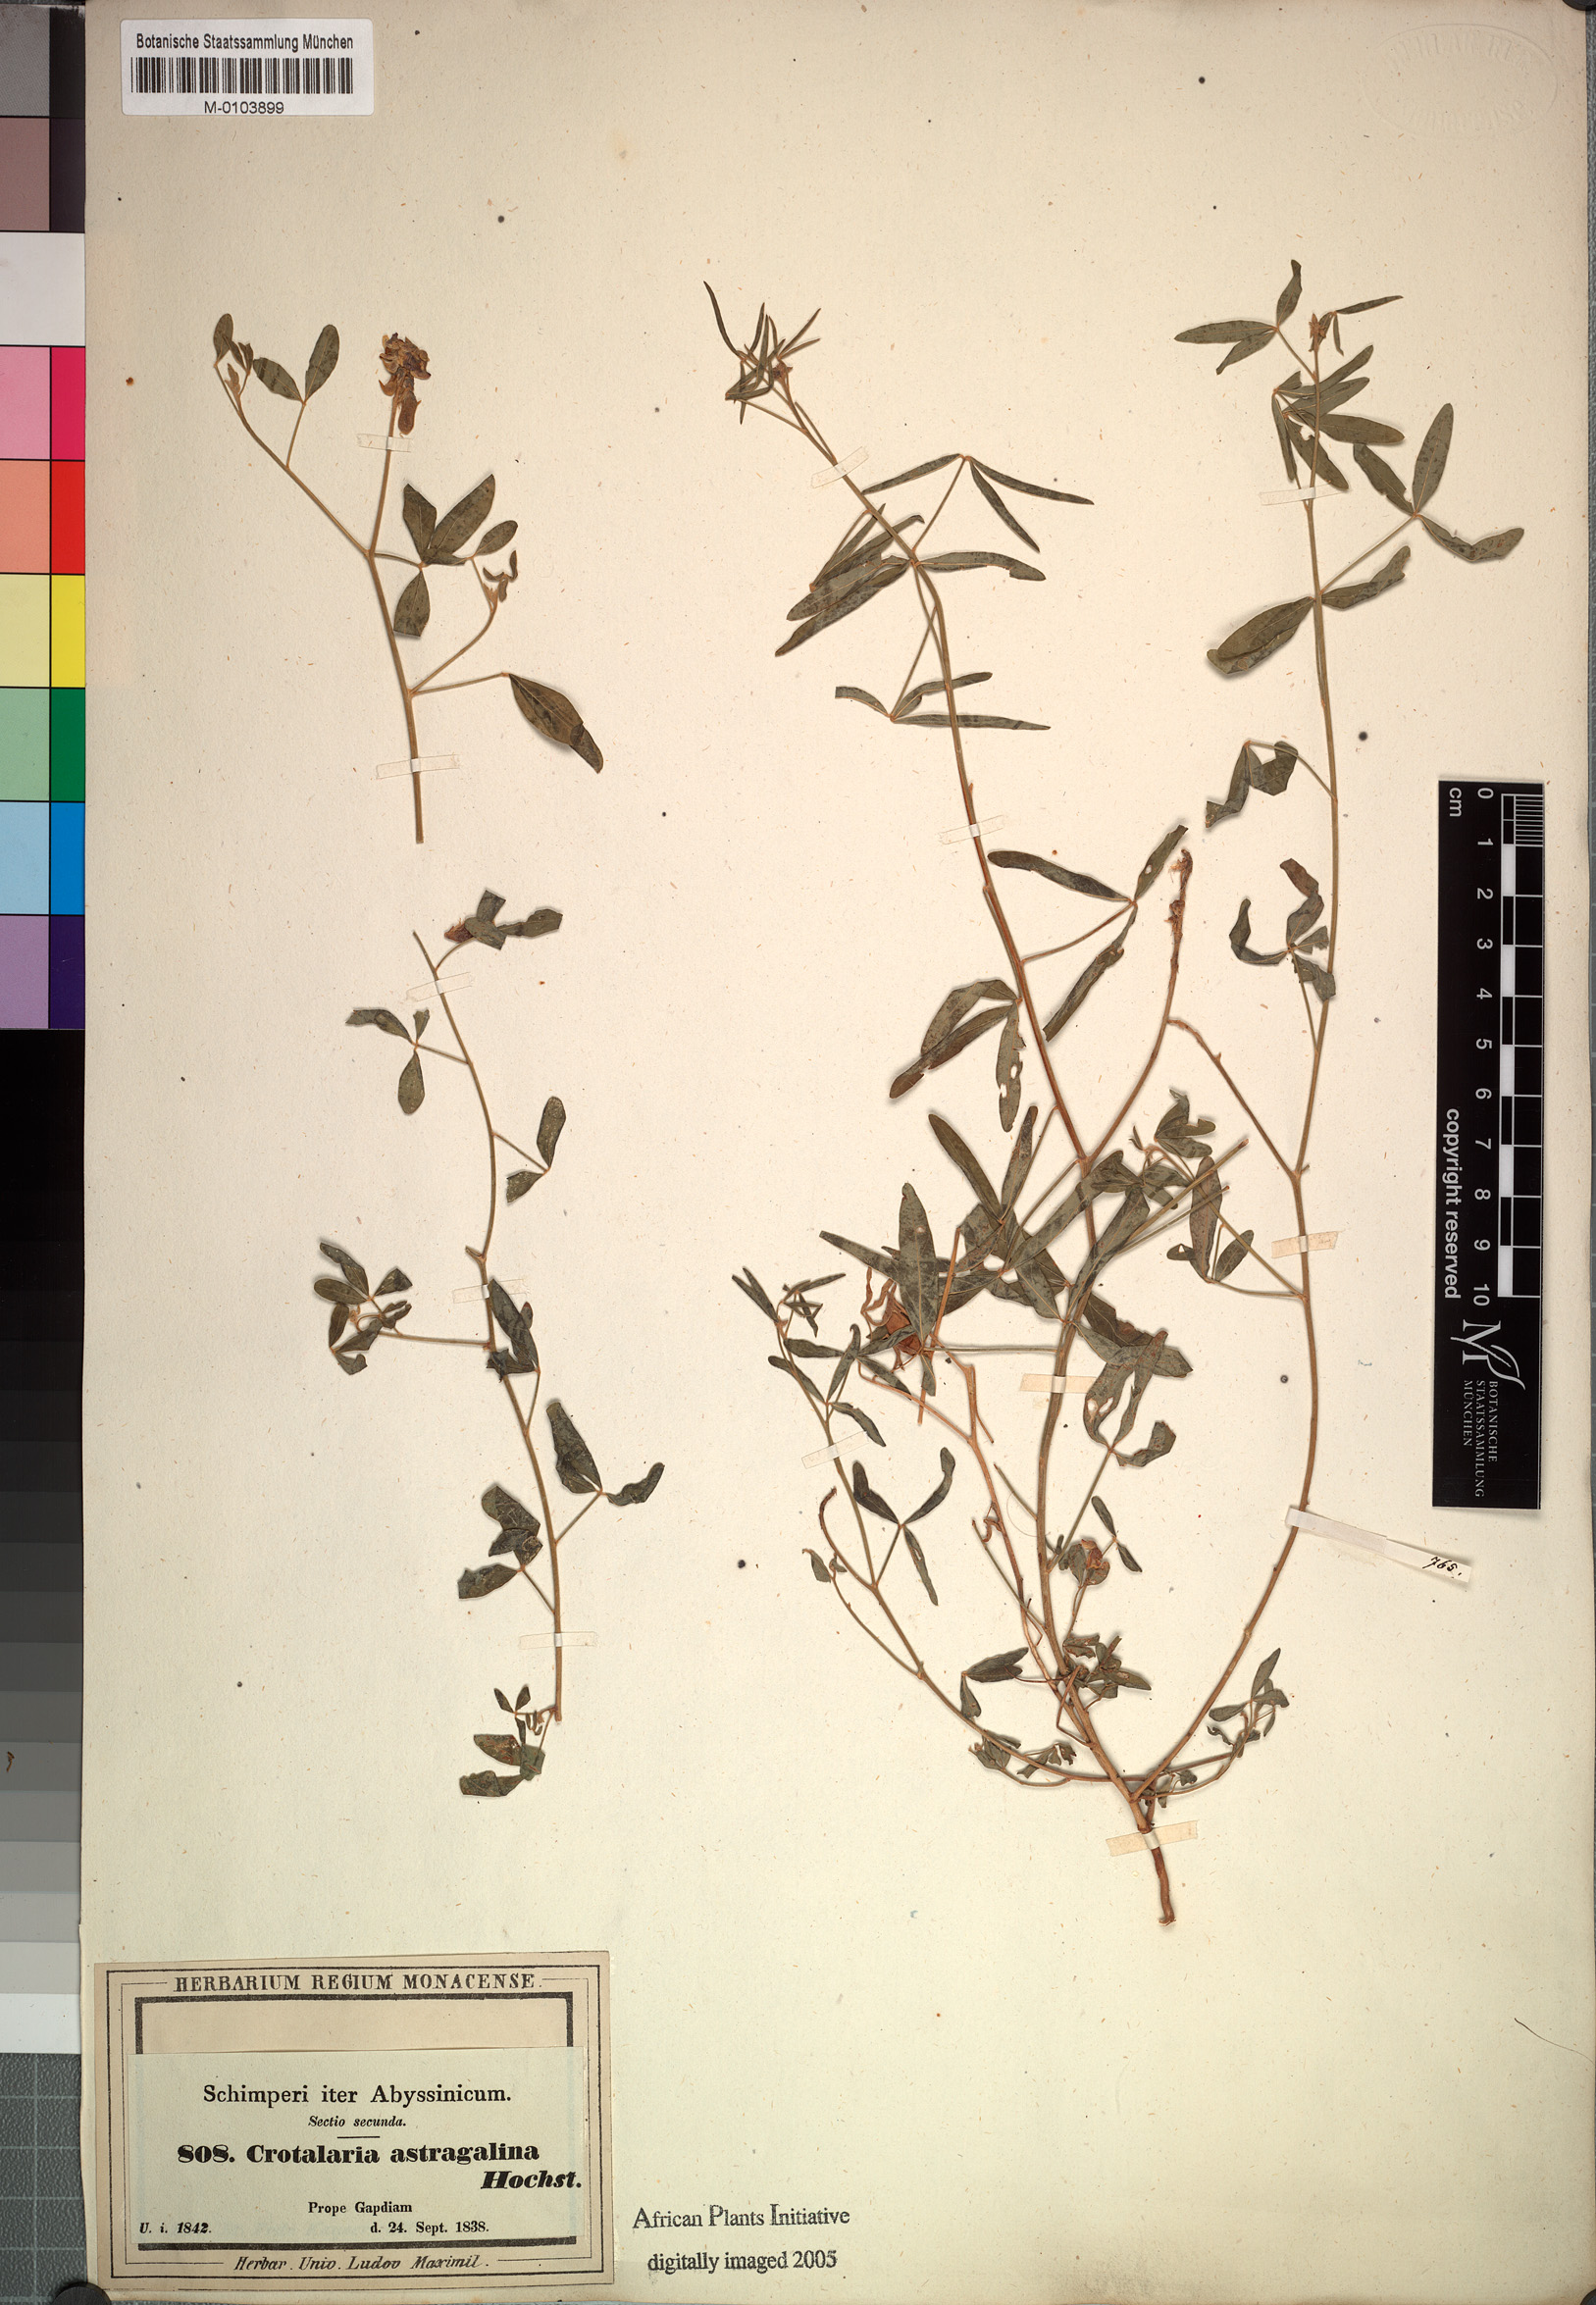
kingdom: Plantae
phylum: Tracheophyta
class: Magnoliopsida
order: Fabales
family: Fabaceae
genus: Crotalaria
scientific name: Crotalaria impressa
